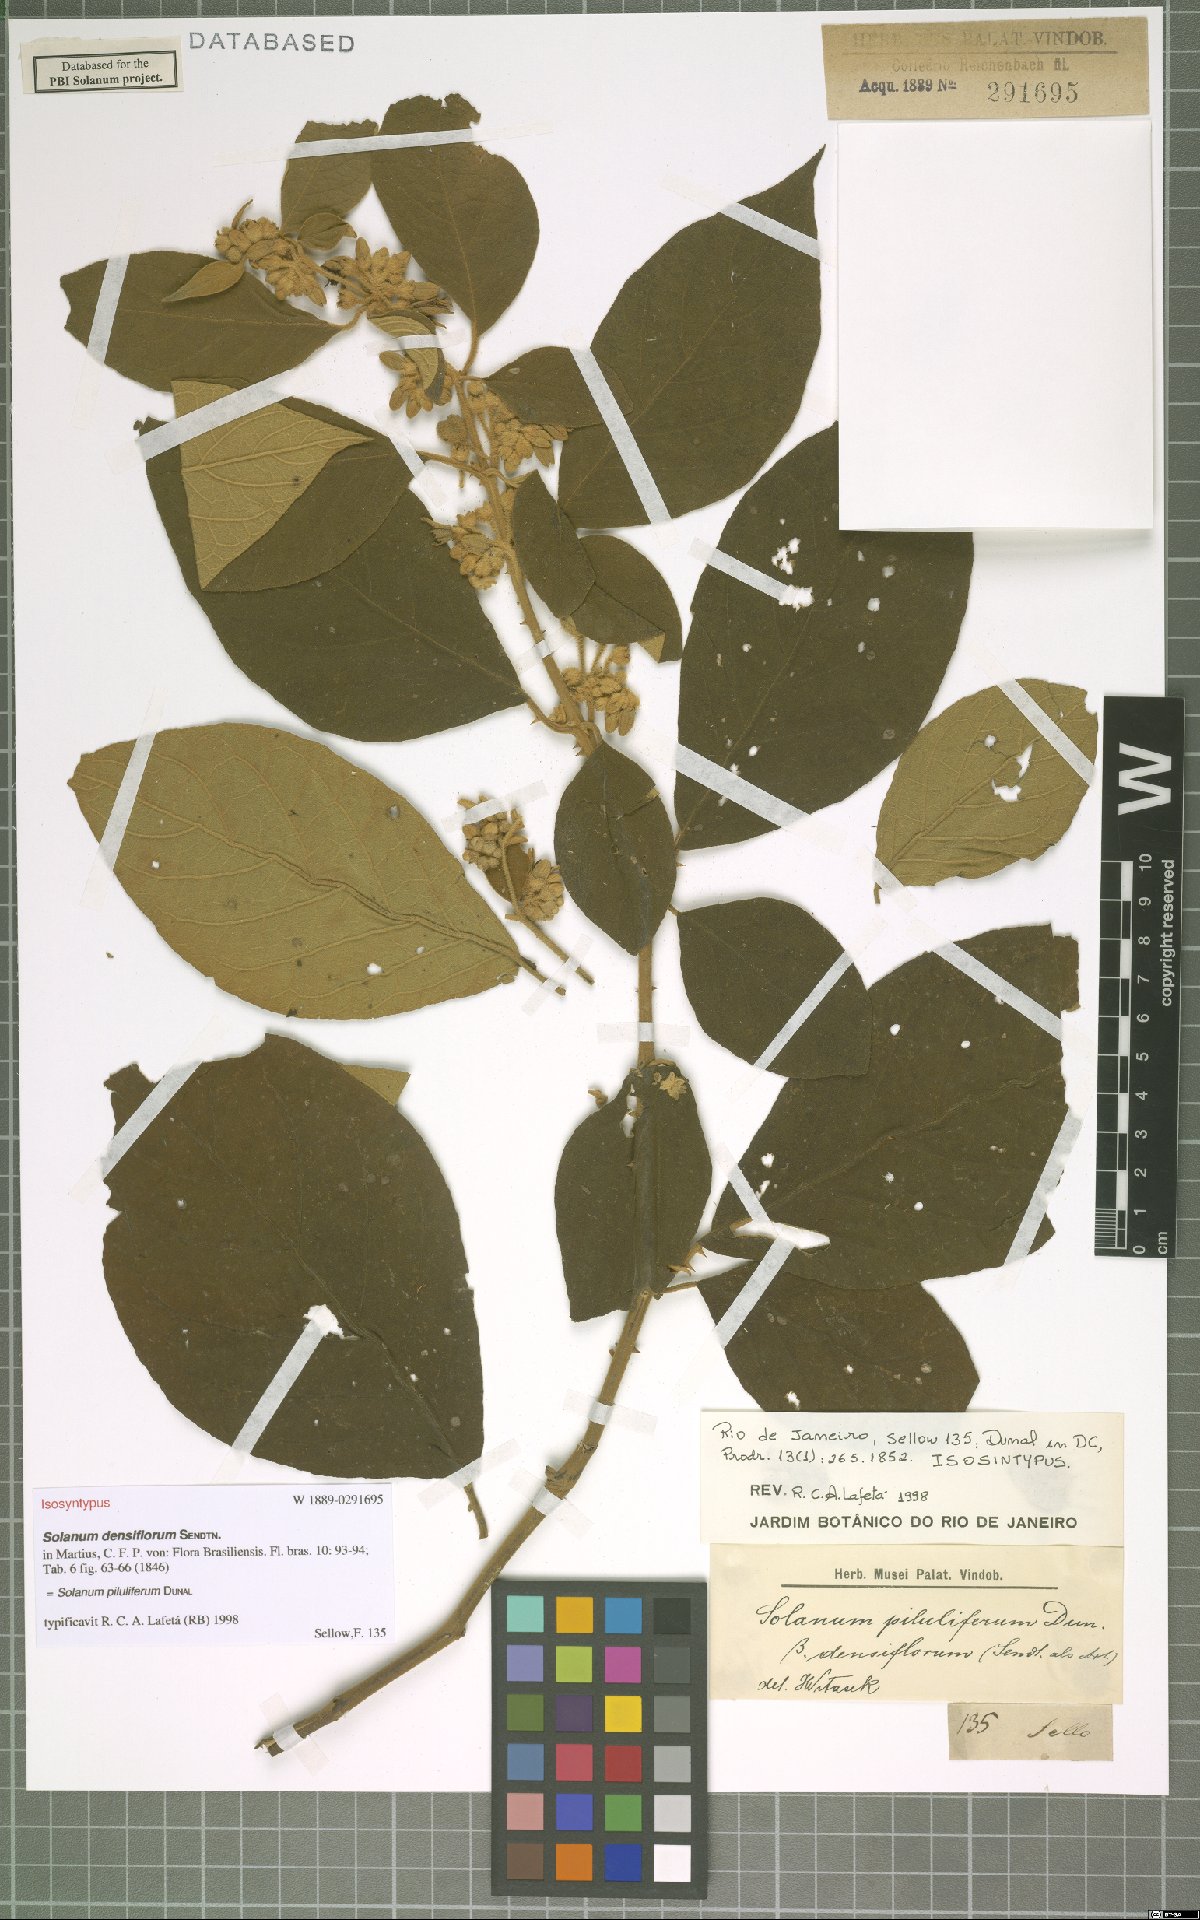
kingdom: Plantae
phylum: Tracheophyta
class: Magnoliopsida
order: Solanales
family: Solanaceae
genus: Solanum
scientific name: Solanum piluliferum
